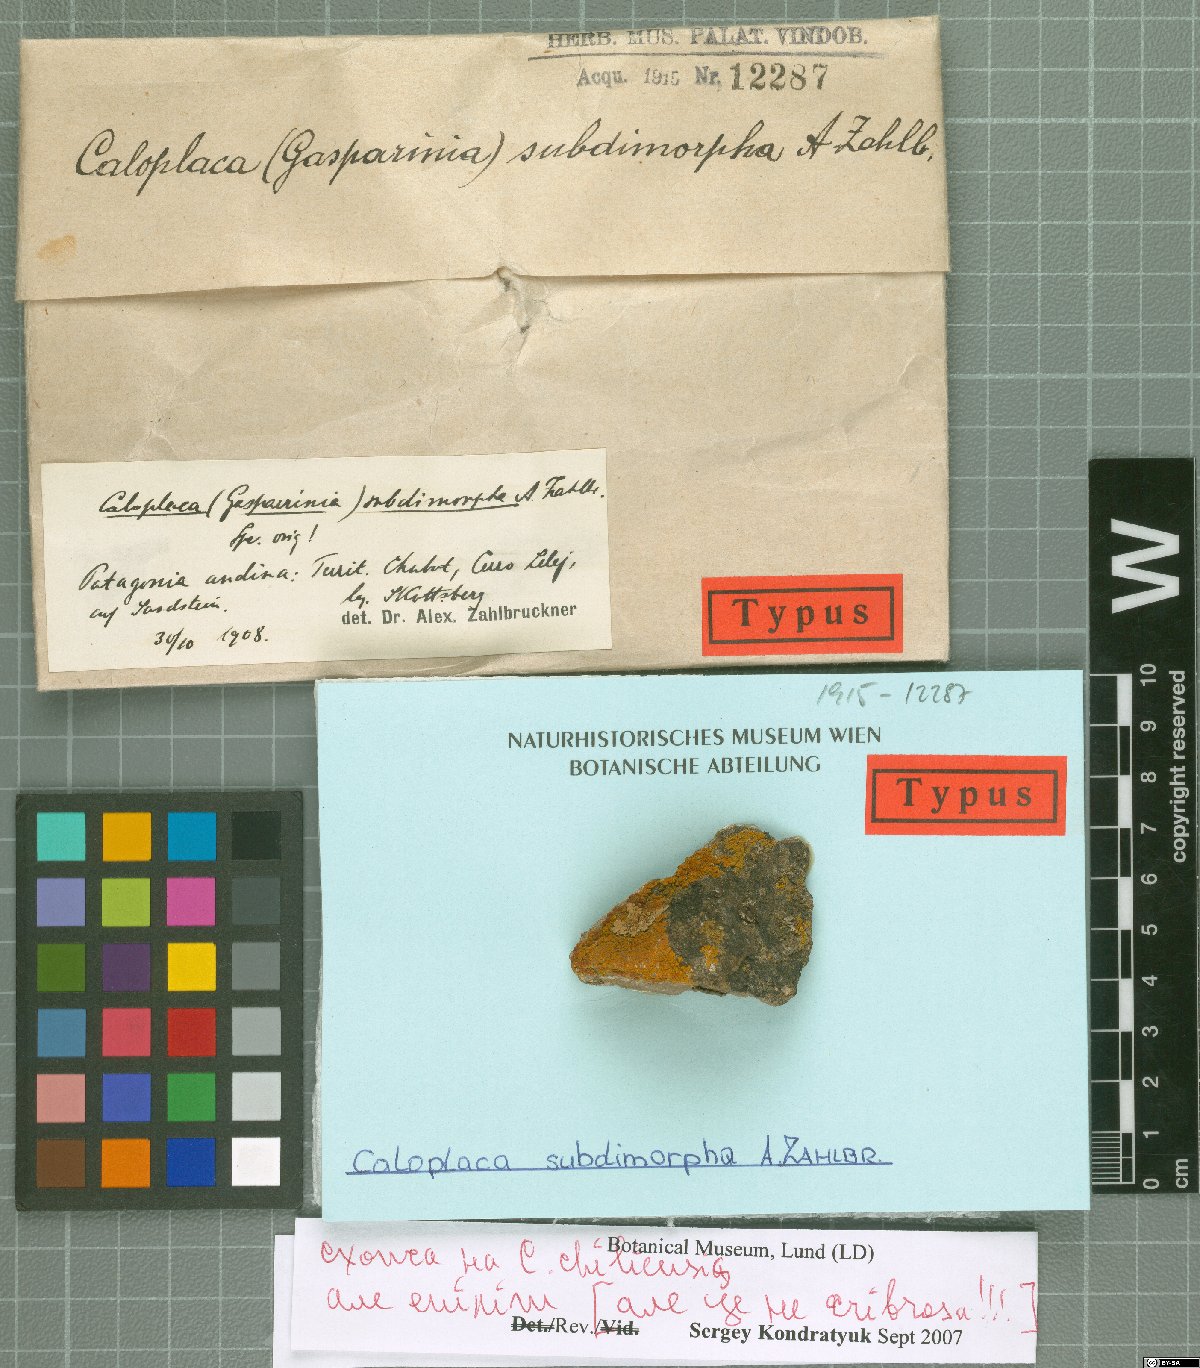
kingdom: Fungi
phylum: Ascomycota
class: Lecanoromycetes
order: Teloschistales
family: Teloschistaceae
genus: Caloplaca
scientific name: Caloplaca
